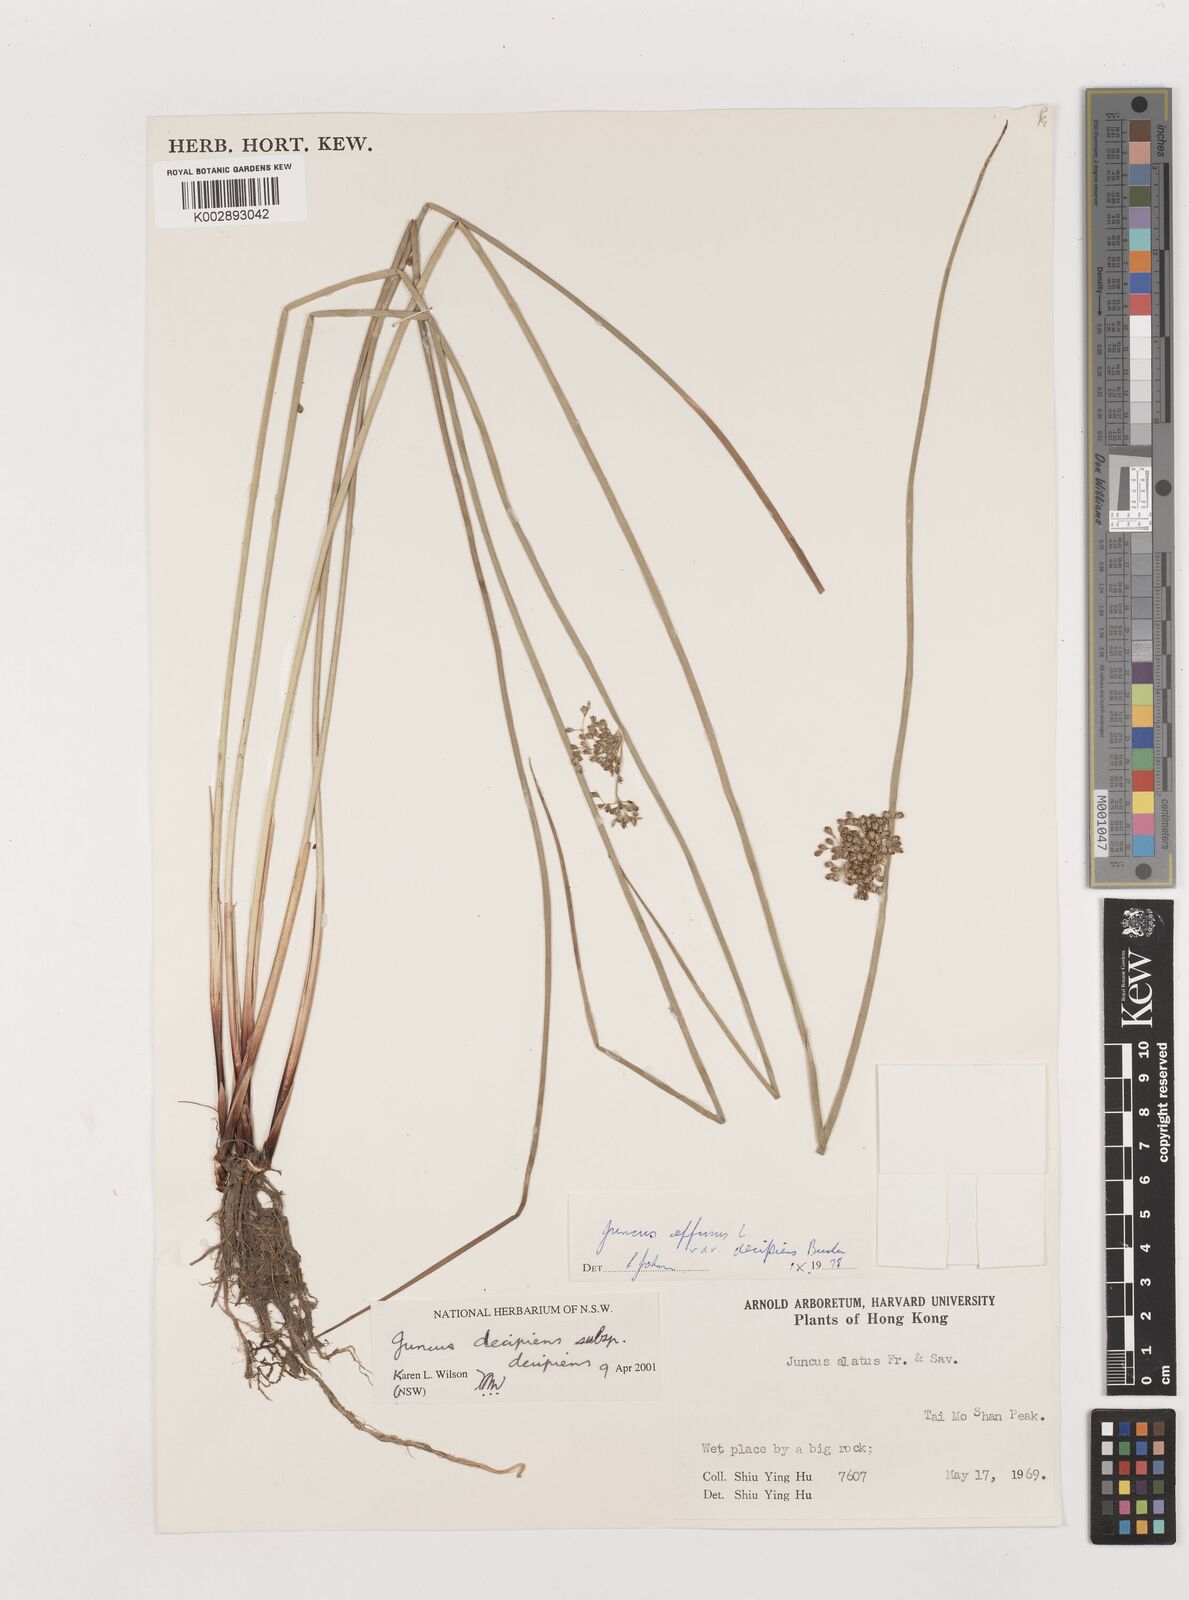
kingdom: Plantae
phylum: Tracheophyta
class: Liliopsida
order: Poales
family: Juncaceae
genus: Juncus
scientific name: Juncus effusus
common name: Soft rush
